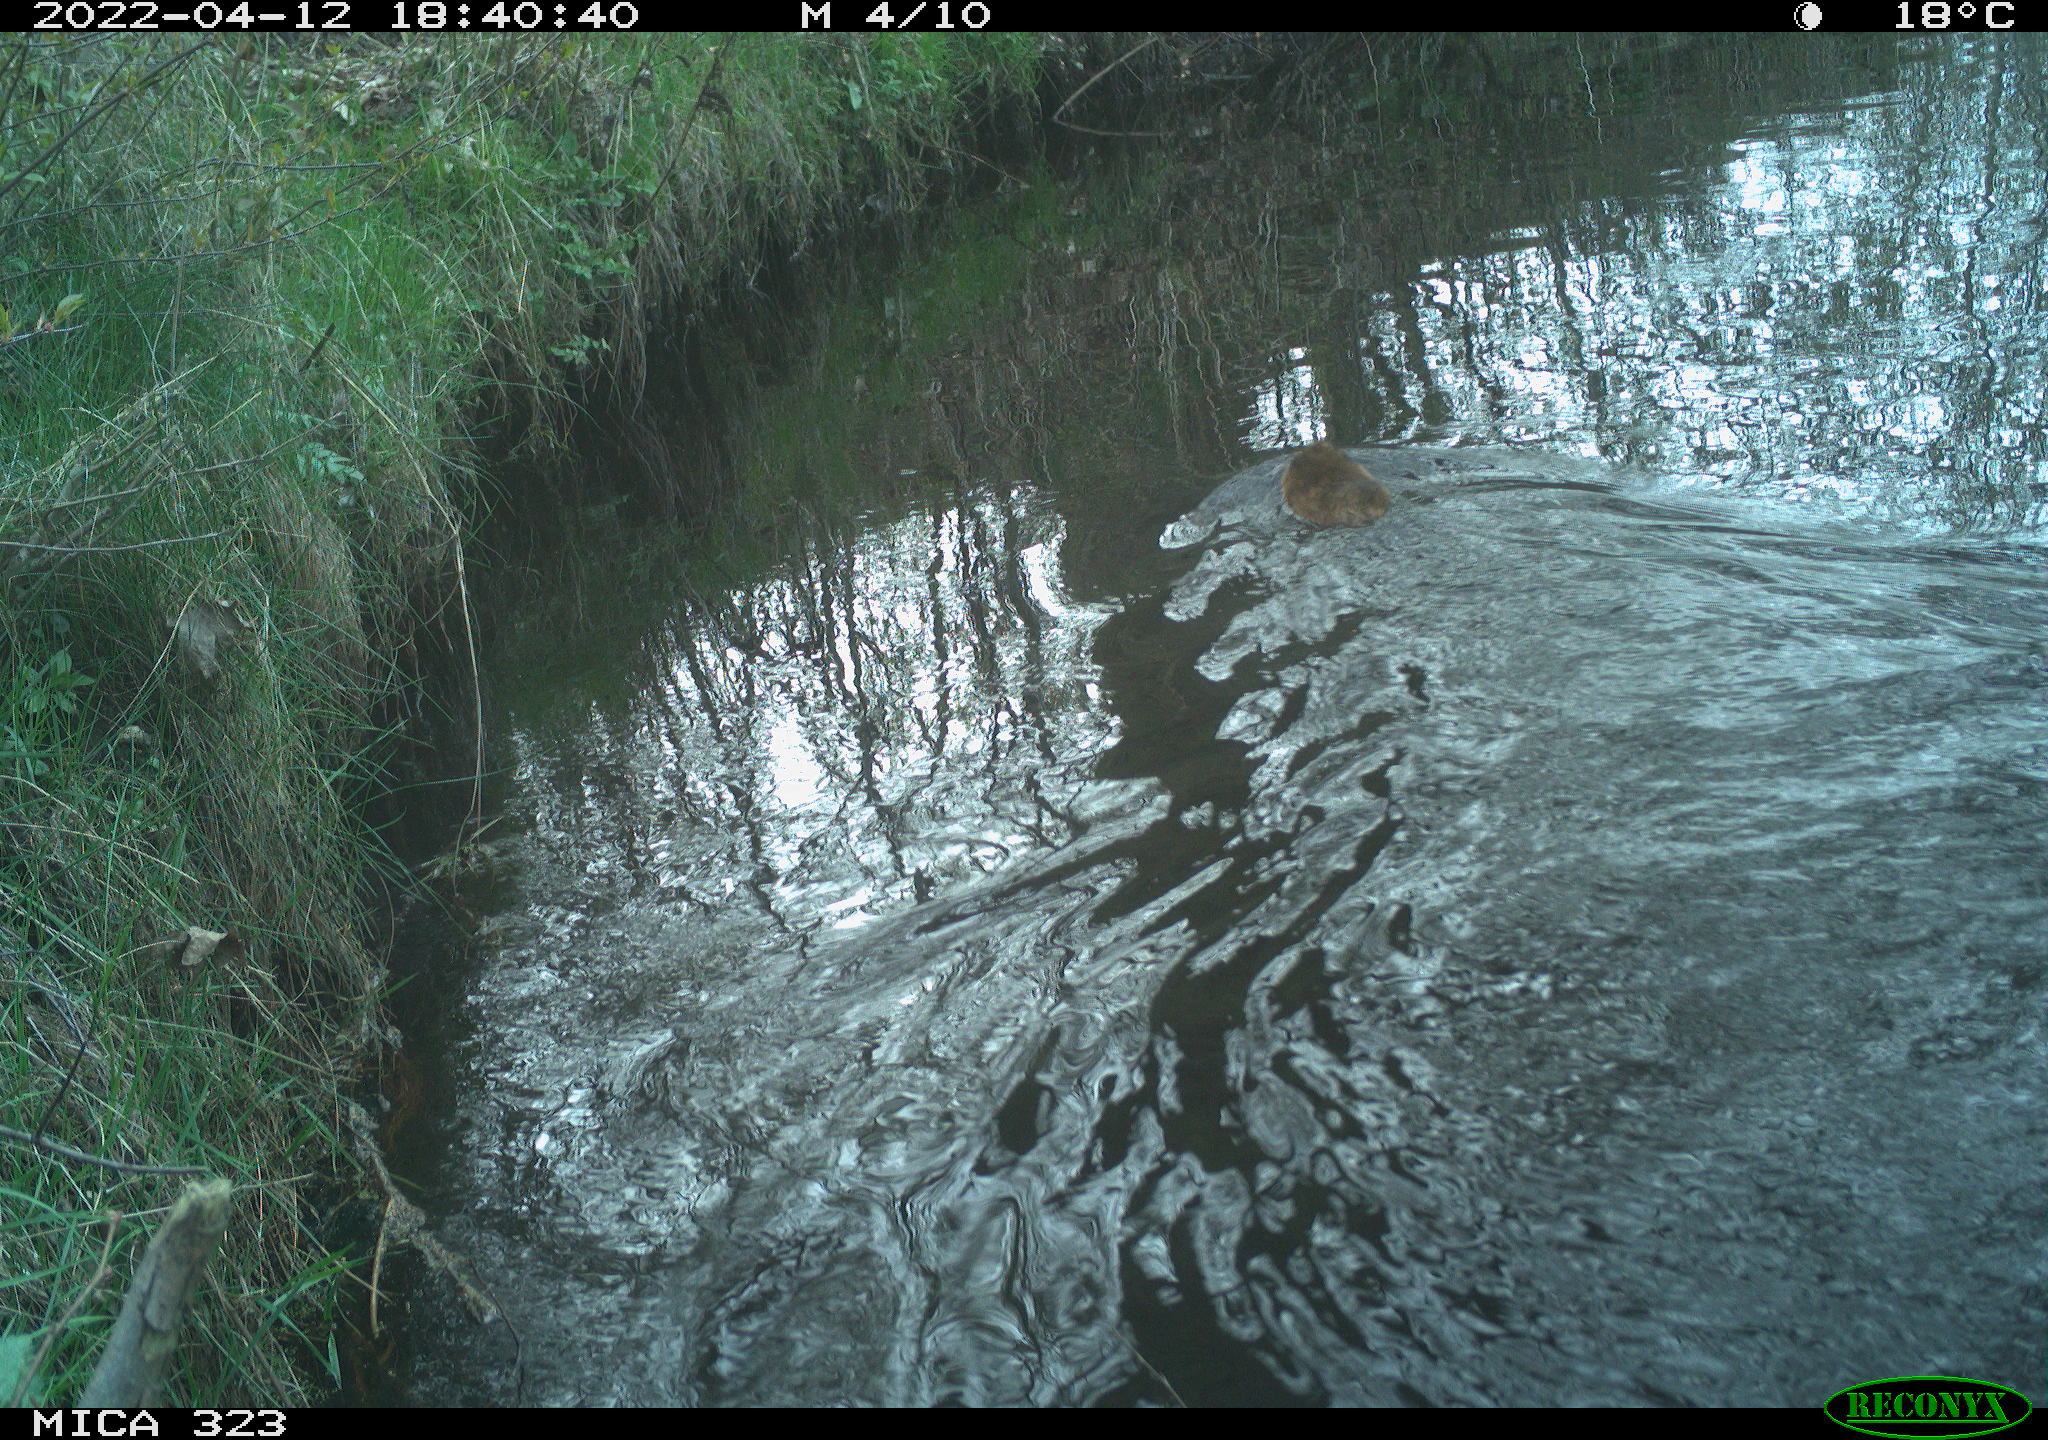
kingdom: Animalia
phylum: Chordata
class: Mammalia
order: Rodentia
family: Cricetidae
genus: Ondatra
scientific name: Ondatra zibethicus
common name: Muskrat
